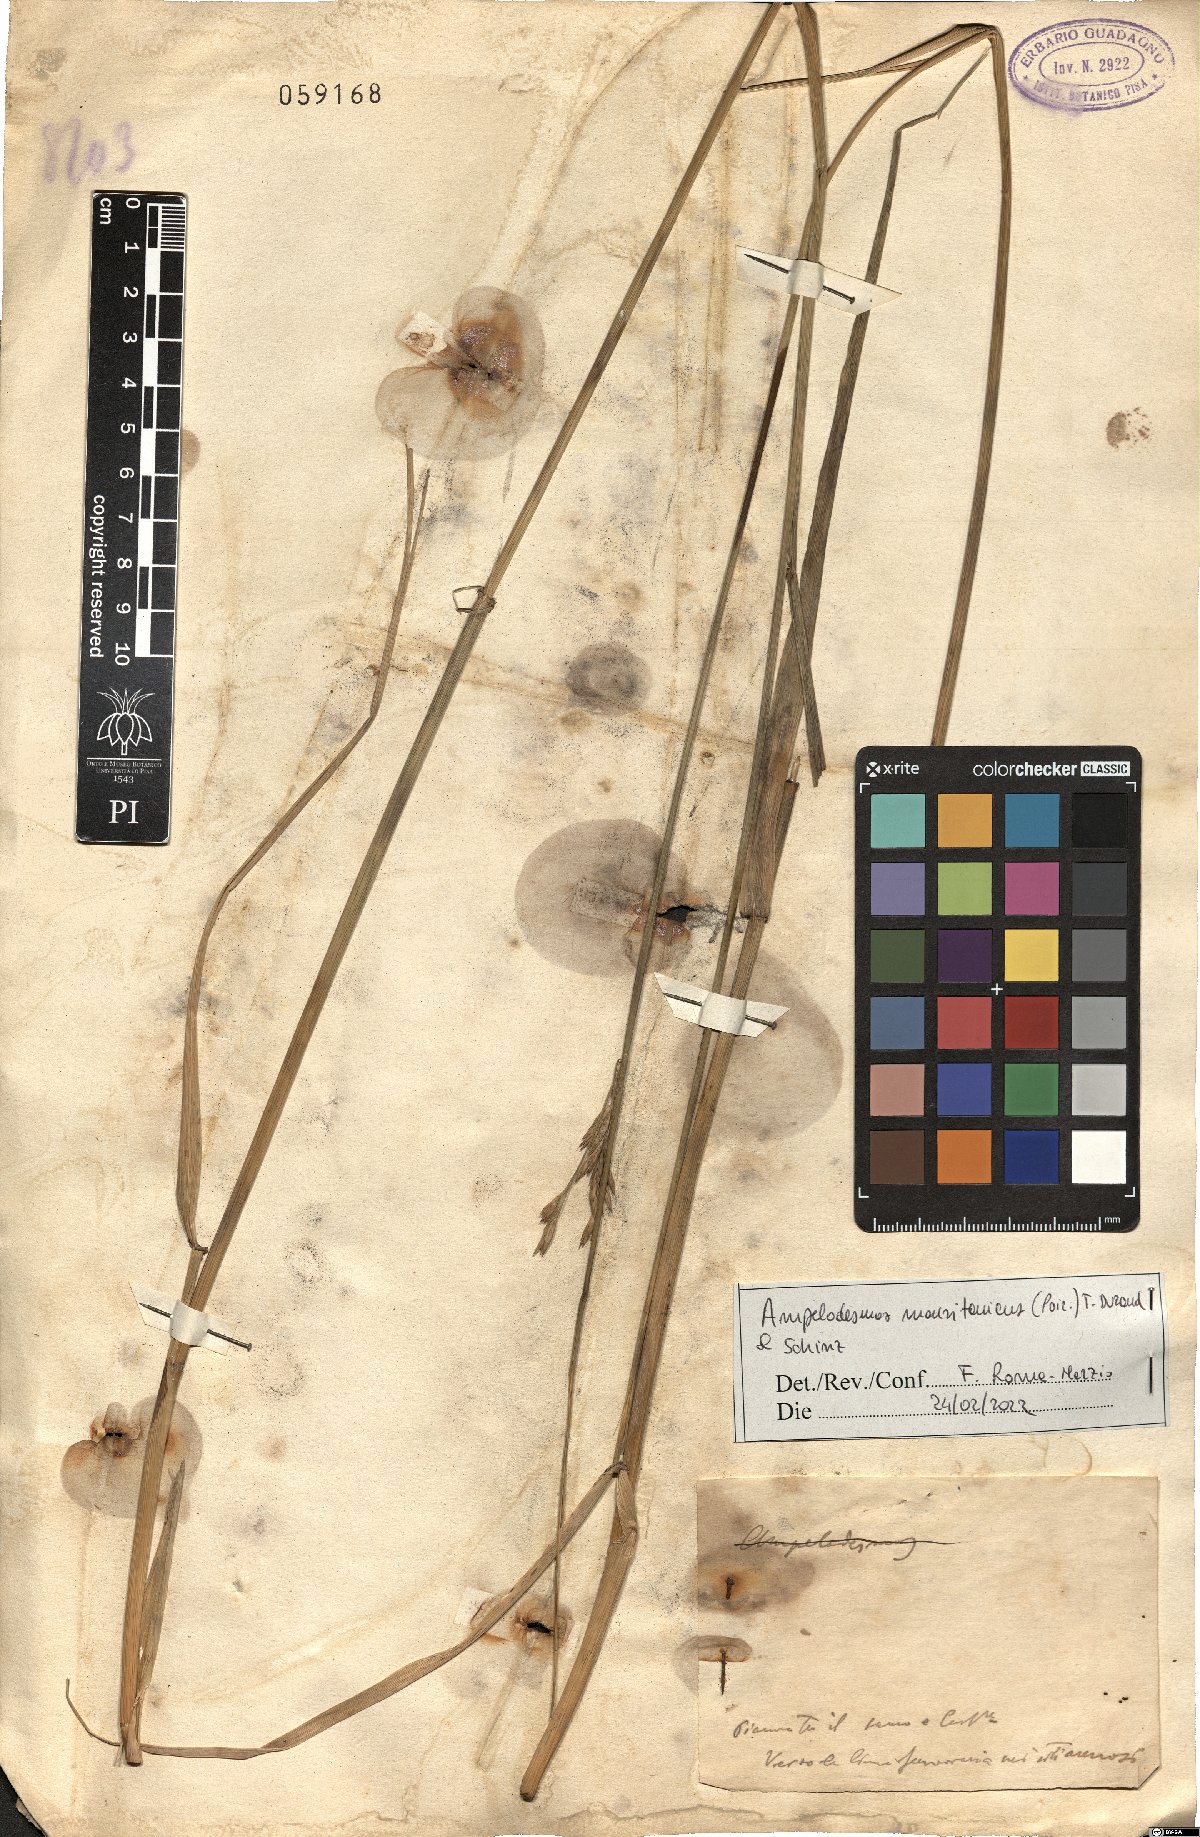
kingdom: Plantae
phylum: Tracheophyta
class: Liliopsida
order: Poales
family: Poaceae
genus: Ampelodesmos
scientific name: Ampelodesmos mauritanicus
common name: Mauritanian grass
